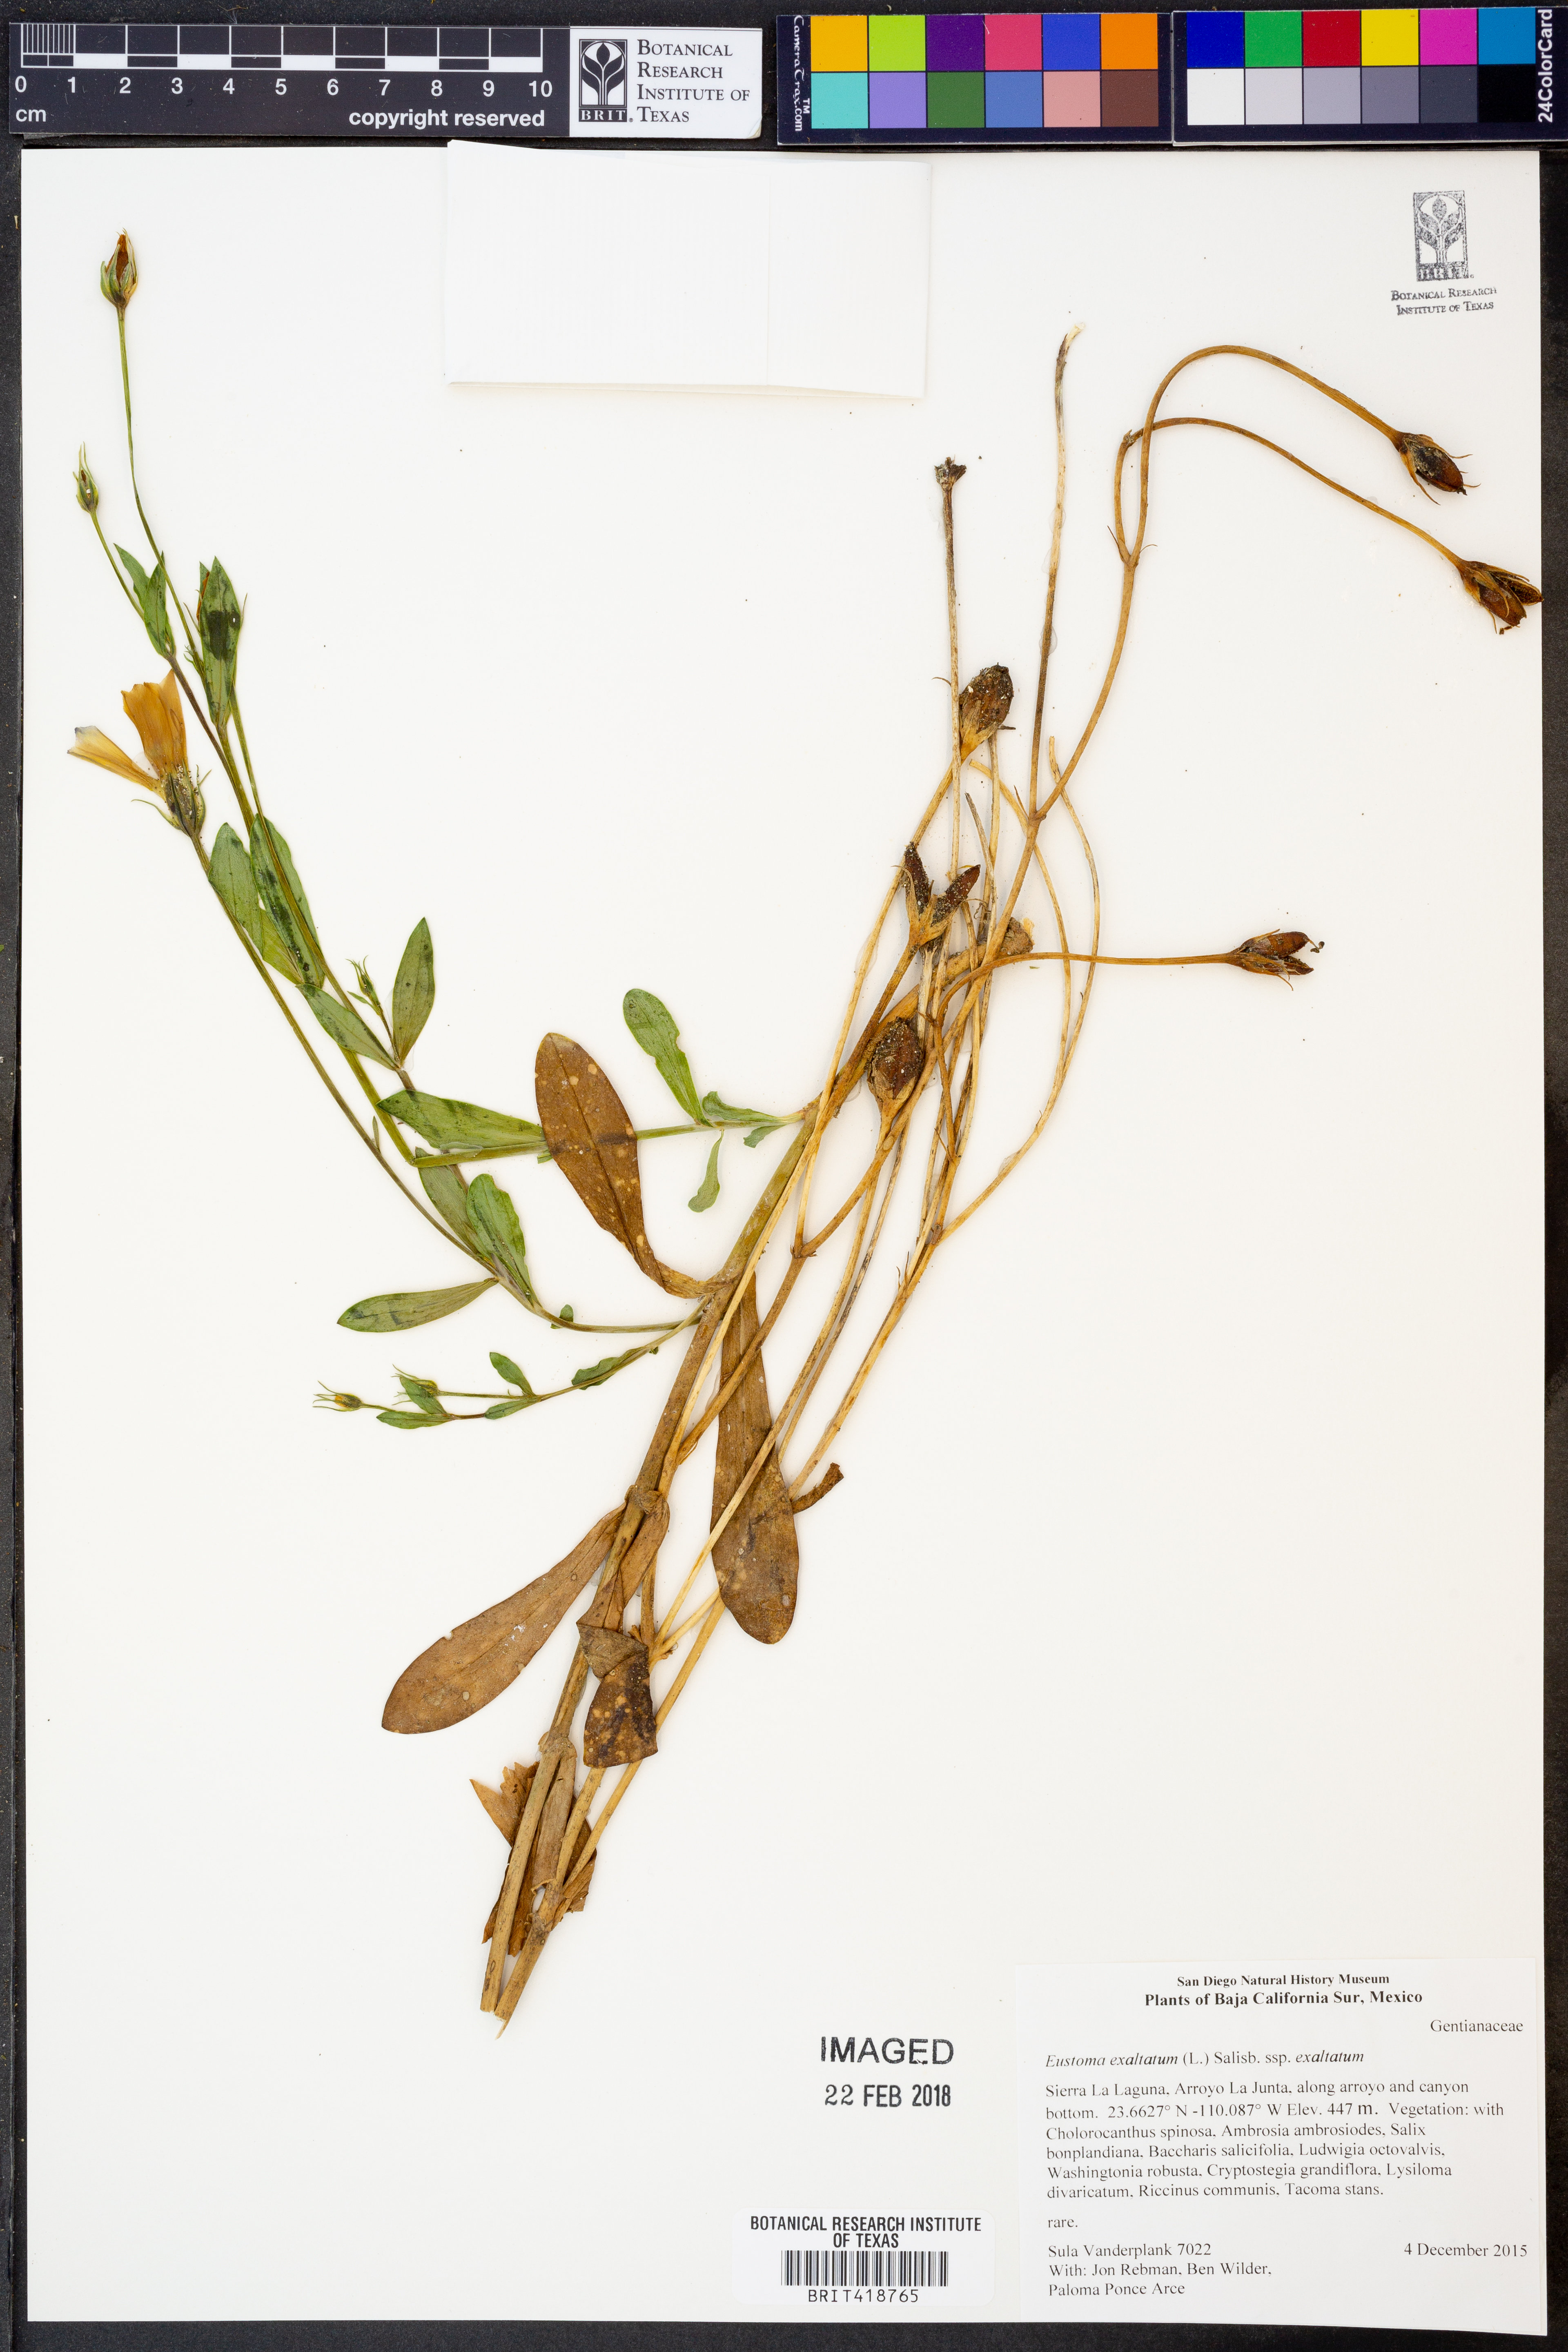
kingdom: Plantae
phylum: Tracheophyta
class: Magnoliopsida
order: Gentianales
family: Gentianaceae
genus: Eustoma
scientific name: Eustoma exaltatum
